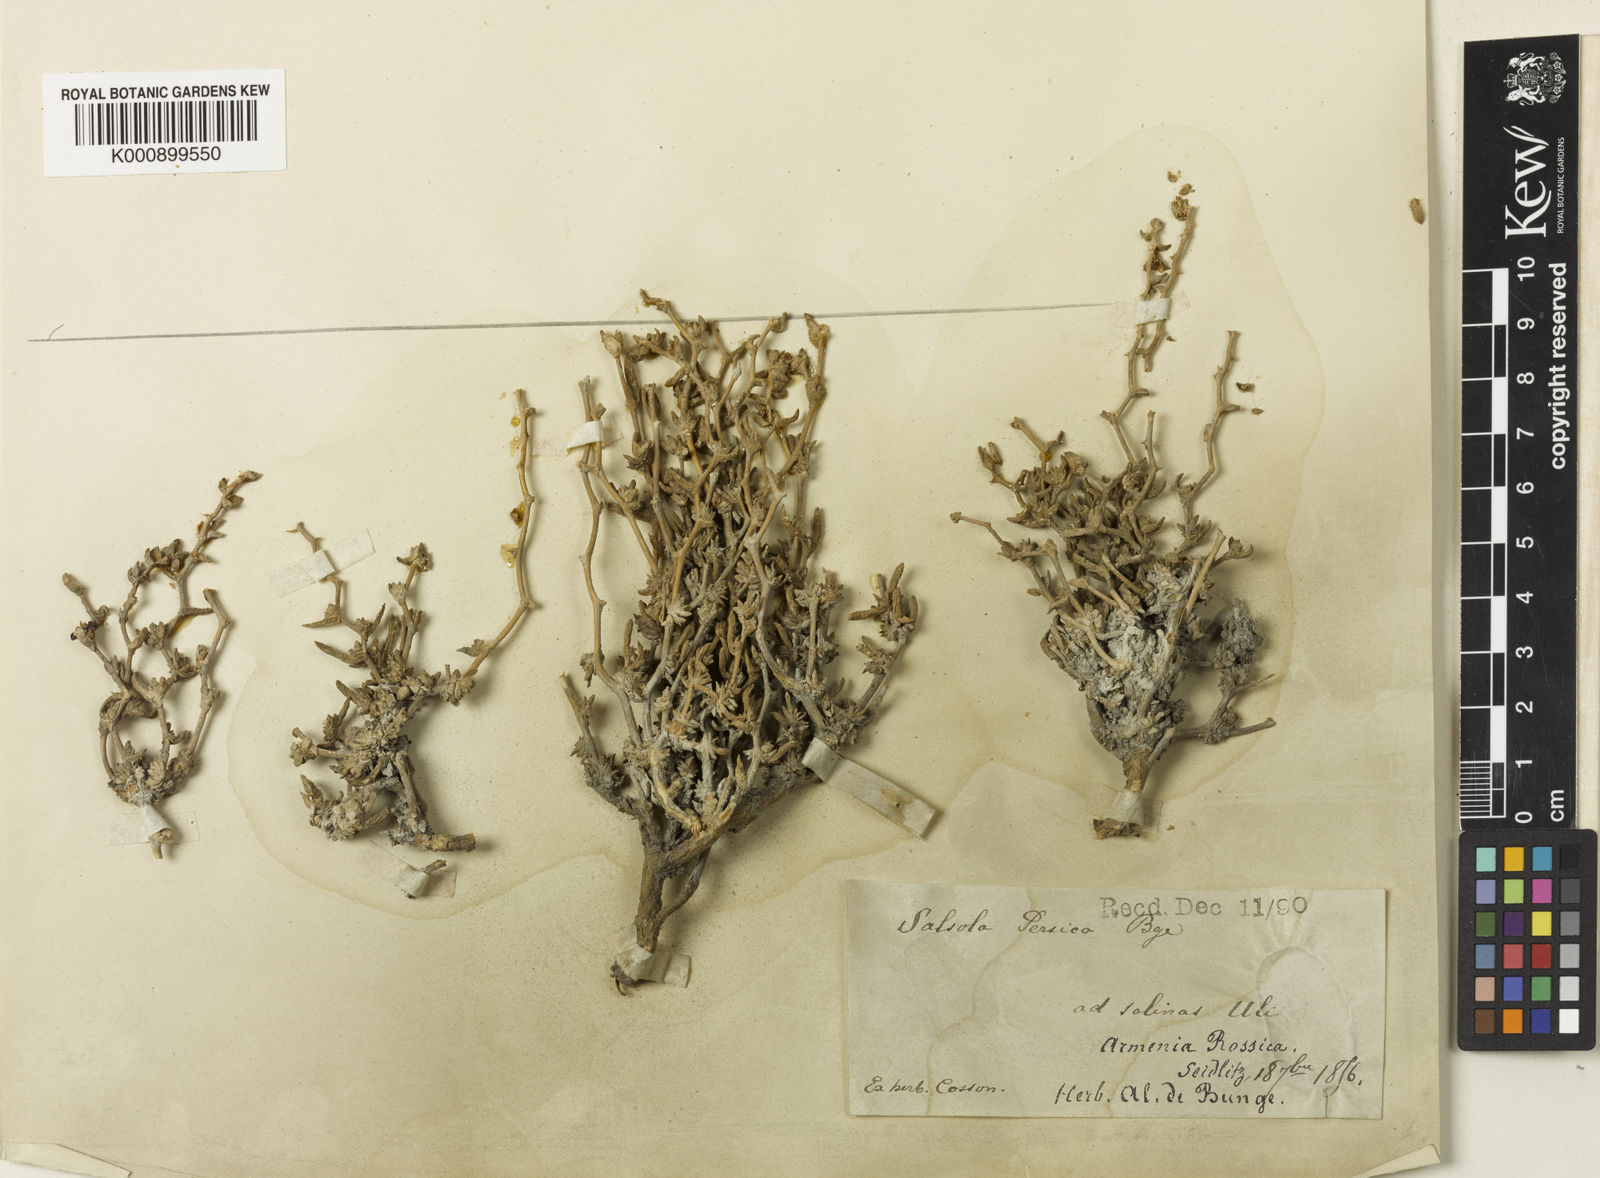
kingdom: Plantae
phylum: Tracheophyta
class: Magnoliopsida
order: Caryophyllales
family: Amaranthaceae
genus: Caroxylon
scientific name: Caroxylon persicum
